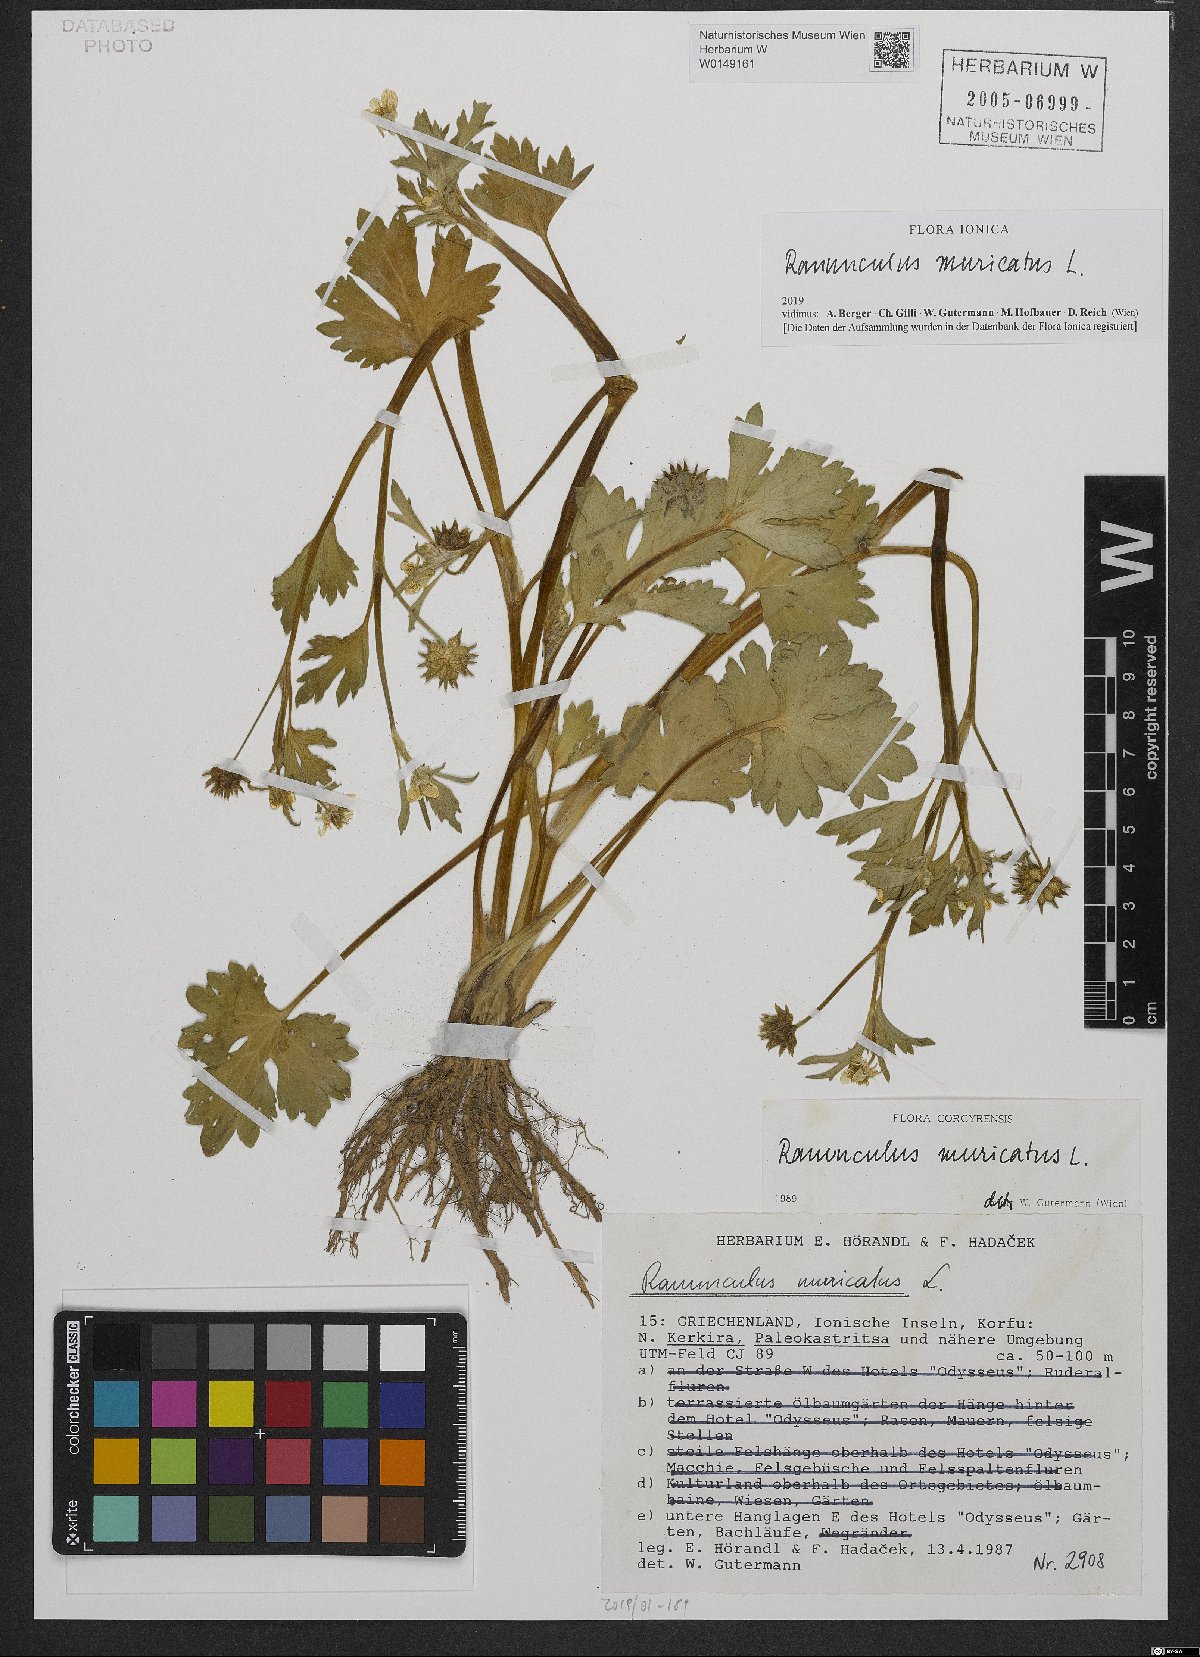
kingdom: Plantae
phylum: Tracheophyta
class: Magnoliopsida
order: Ranunculales
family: Ranunculaceae
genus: Ranunculus
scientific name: Ranunculus muricatus
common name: Rough-fruited buttercup
